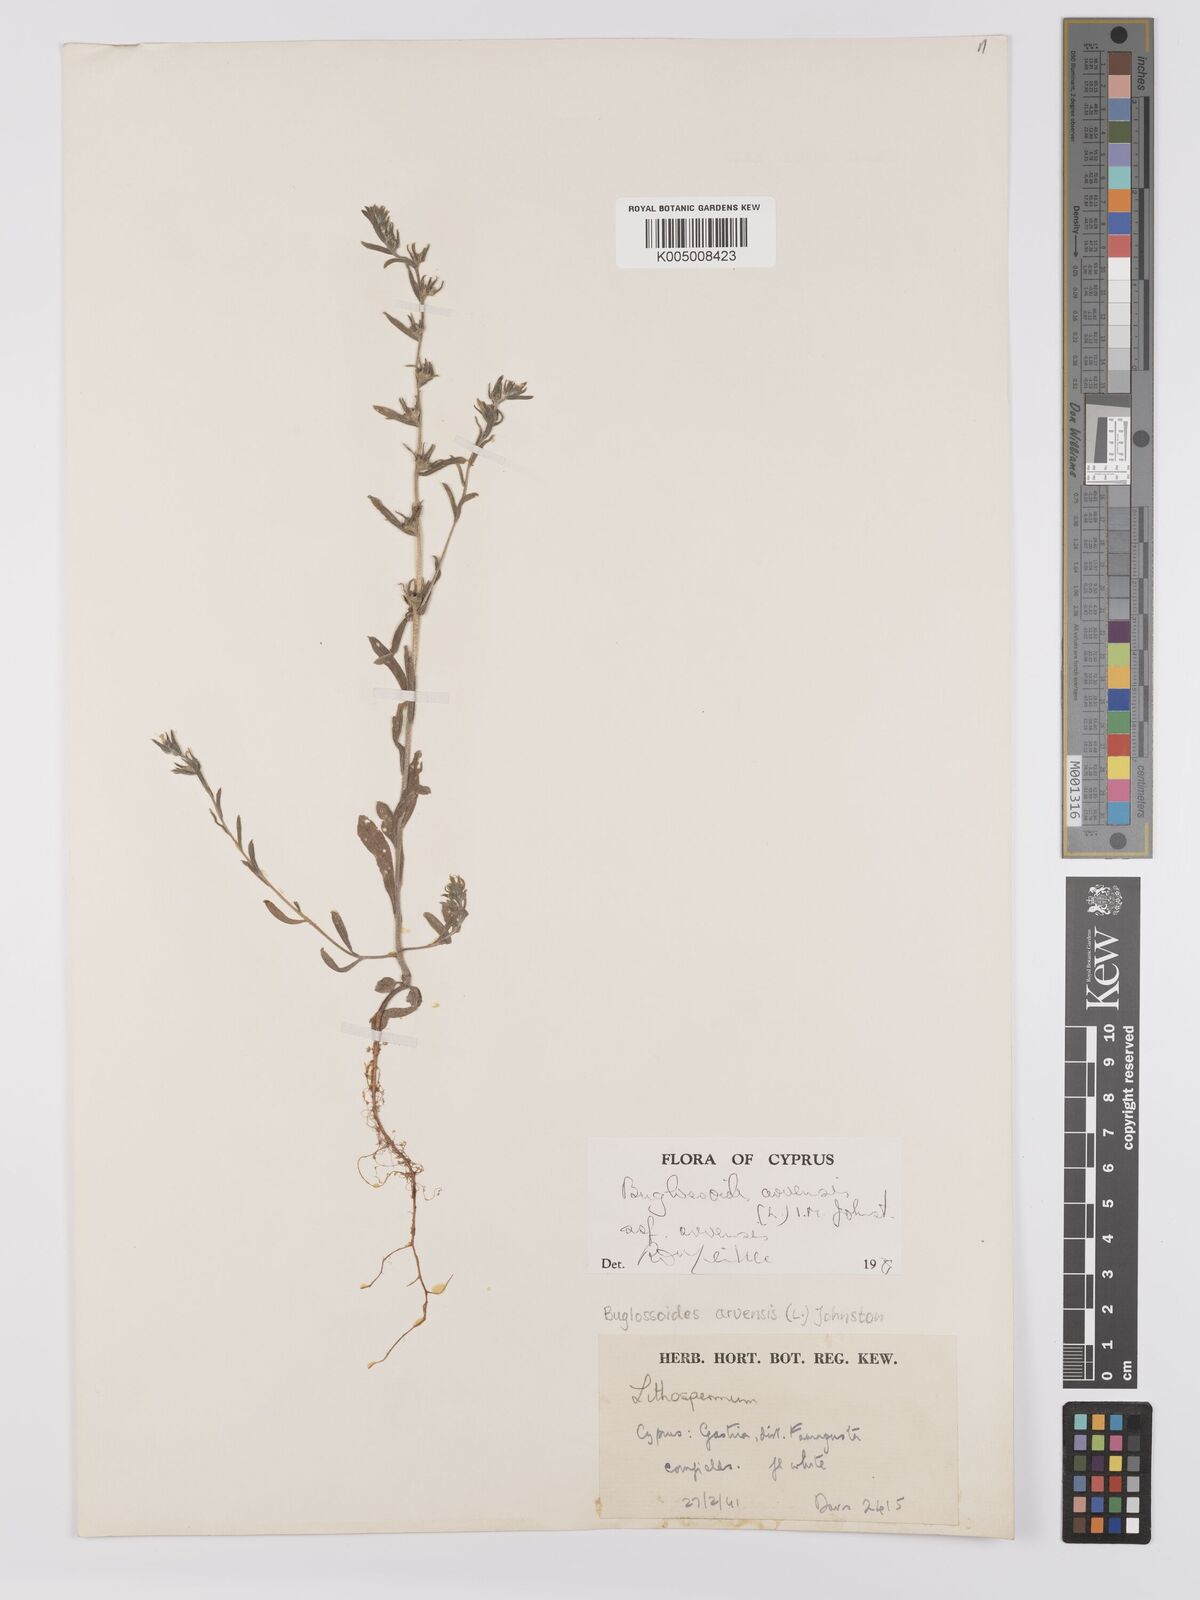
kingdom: Plantae
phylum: Tracheophyta
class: Magnoliopsida
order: Boraginales
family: Boraginaceae
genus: Buglossoides
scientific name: Buglossoides arvensis
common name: Corn gromwell
